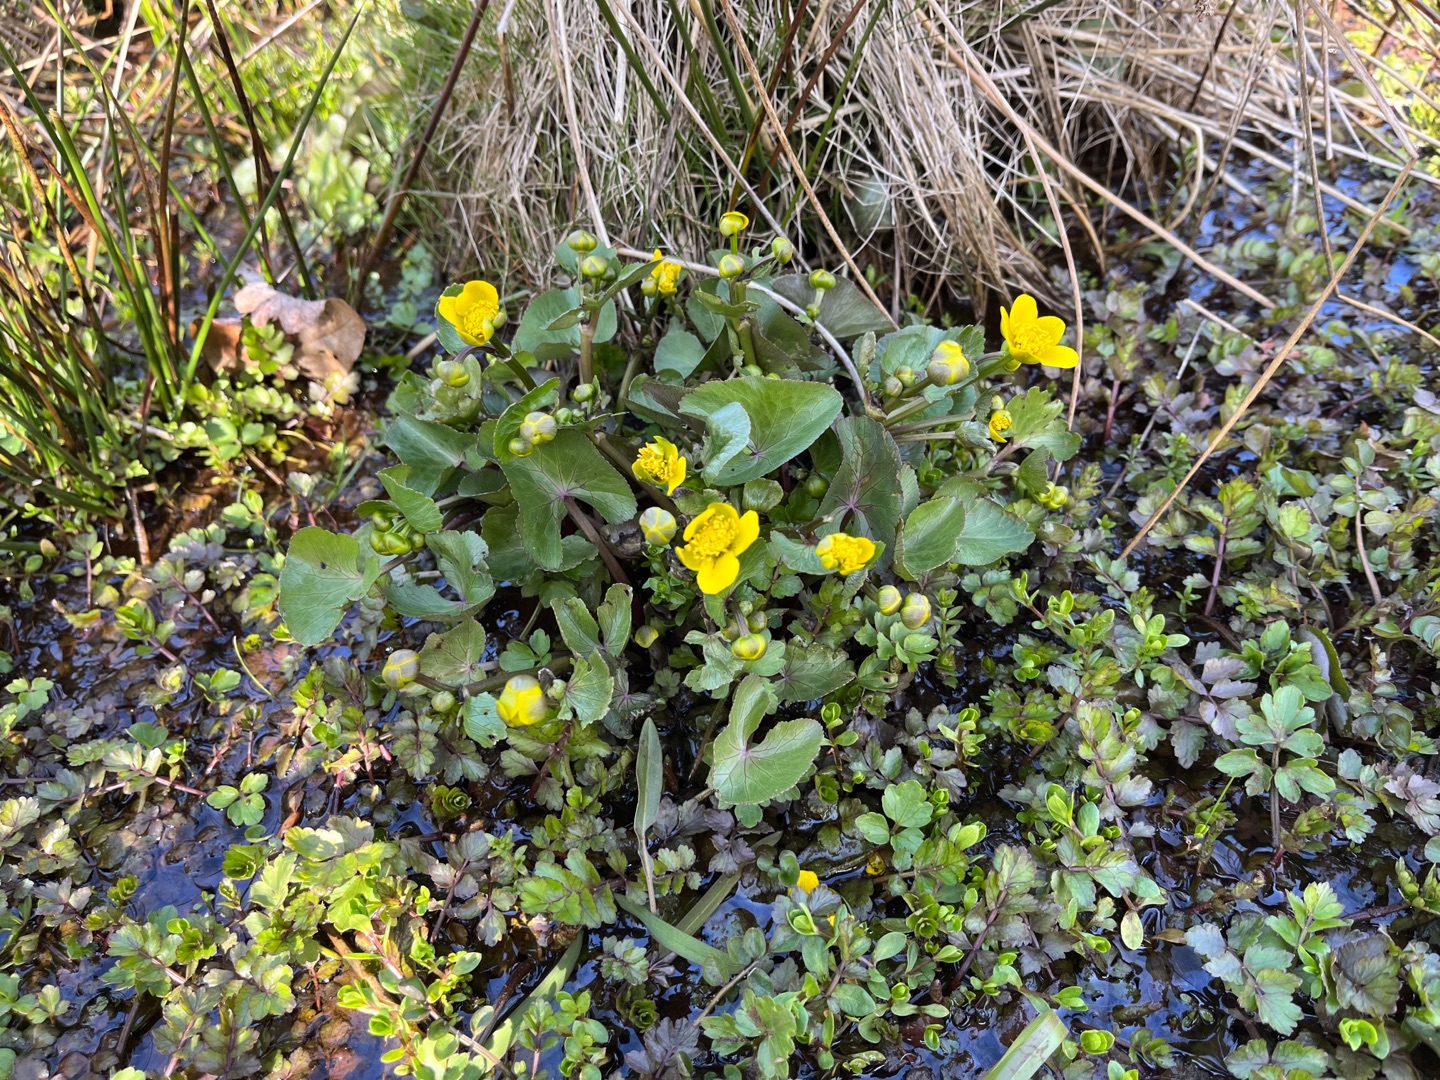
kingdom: Plantae
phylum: Tracheophyta
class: Magnoliopsida
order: Ranunculales
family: Ranunculaceae
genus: Caltha
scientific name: Caltha palustris
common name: Eng-kabbeleje
